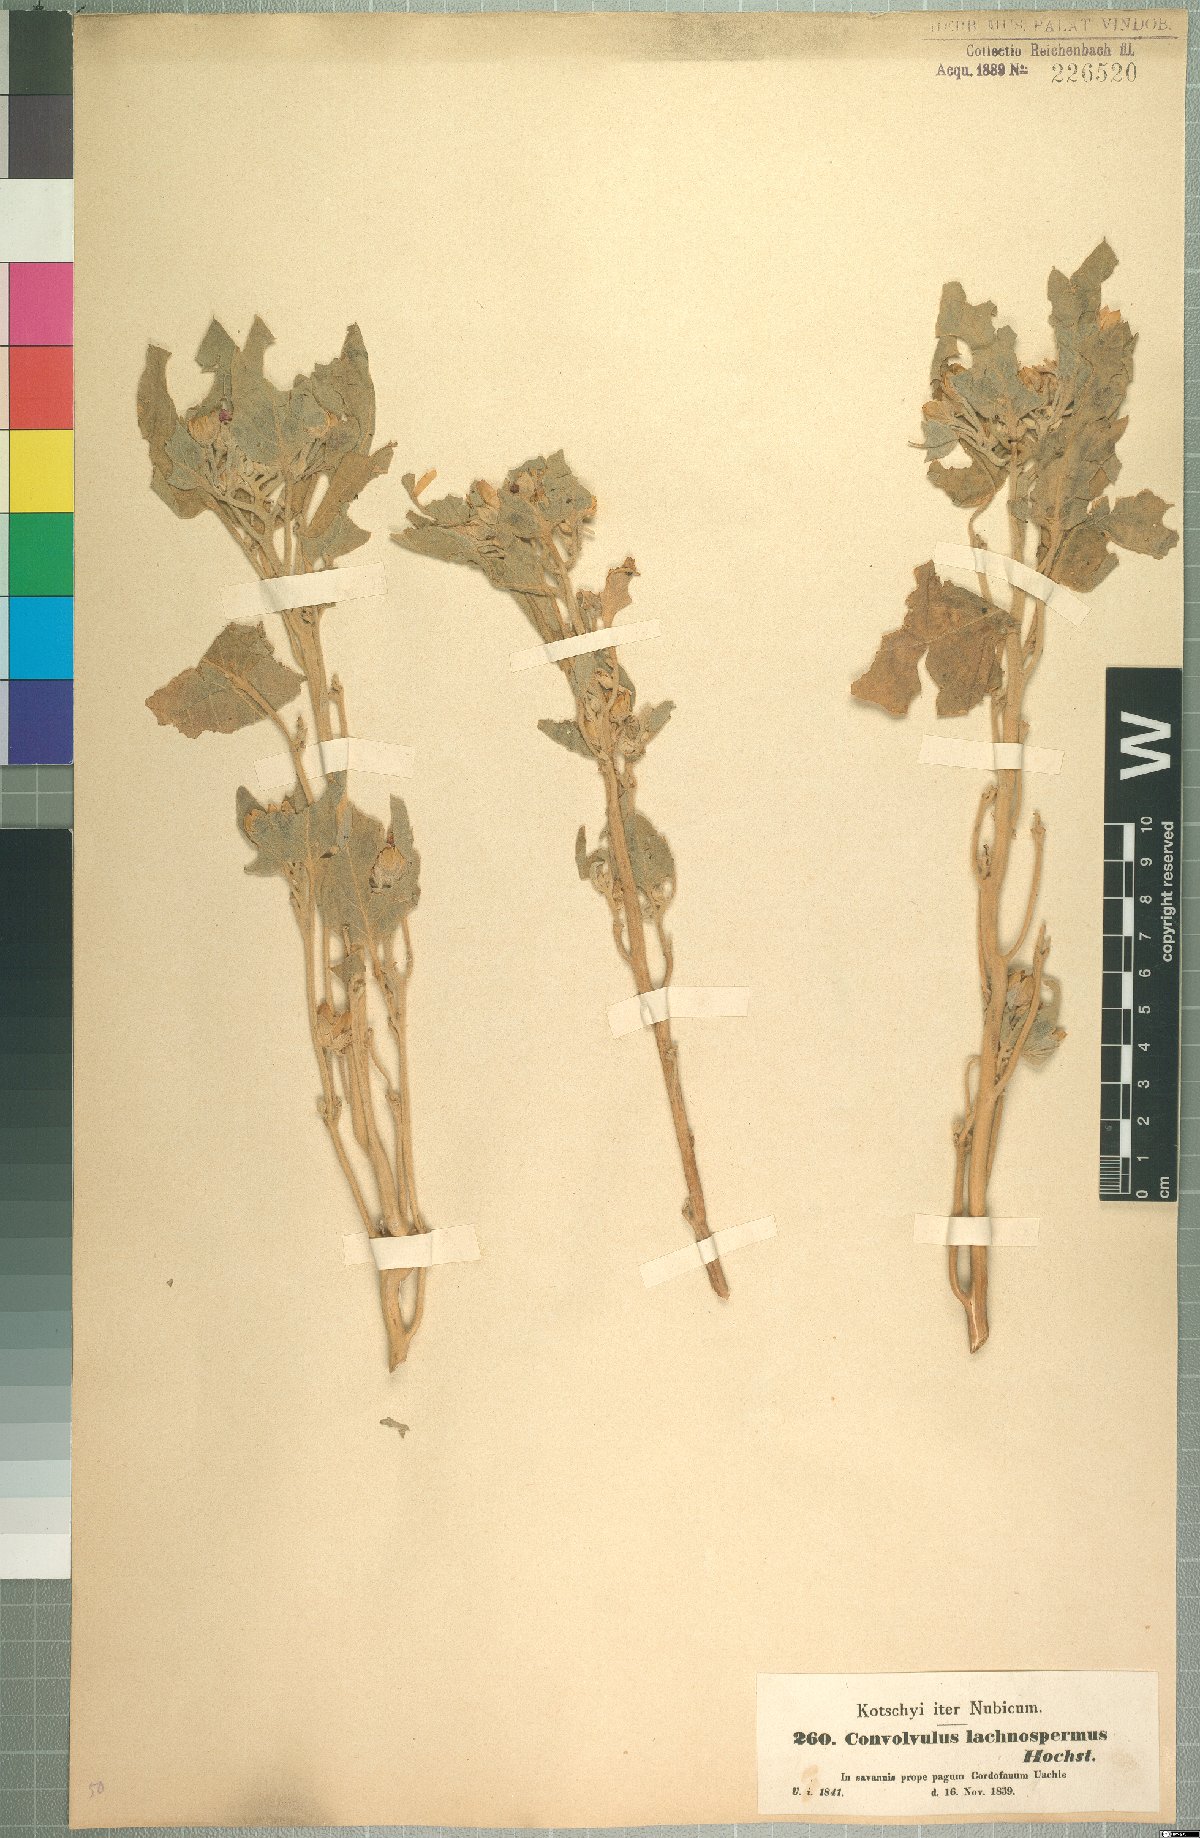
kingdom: Plantae
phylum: Tracheophyta
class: Magnoliopsida
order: Solanales
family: Convolvulaceae
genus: Astripomoea
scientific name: Astripomoea lachnosperma
